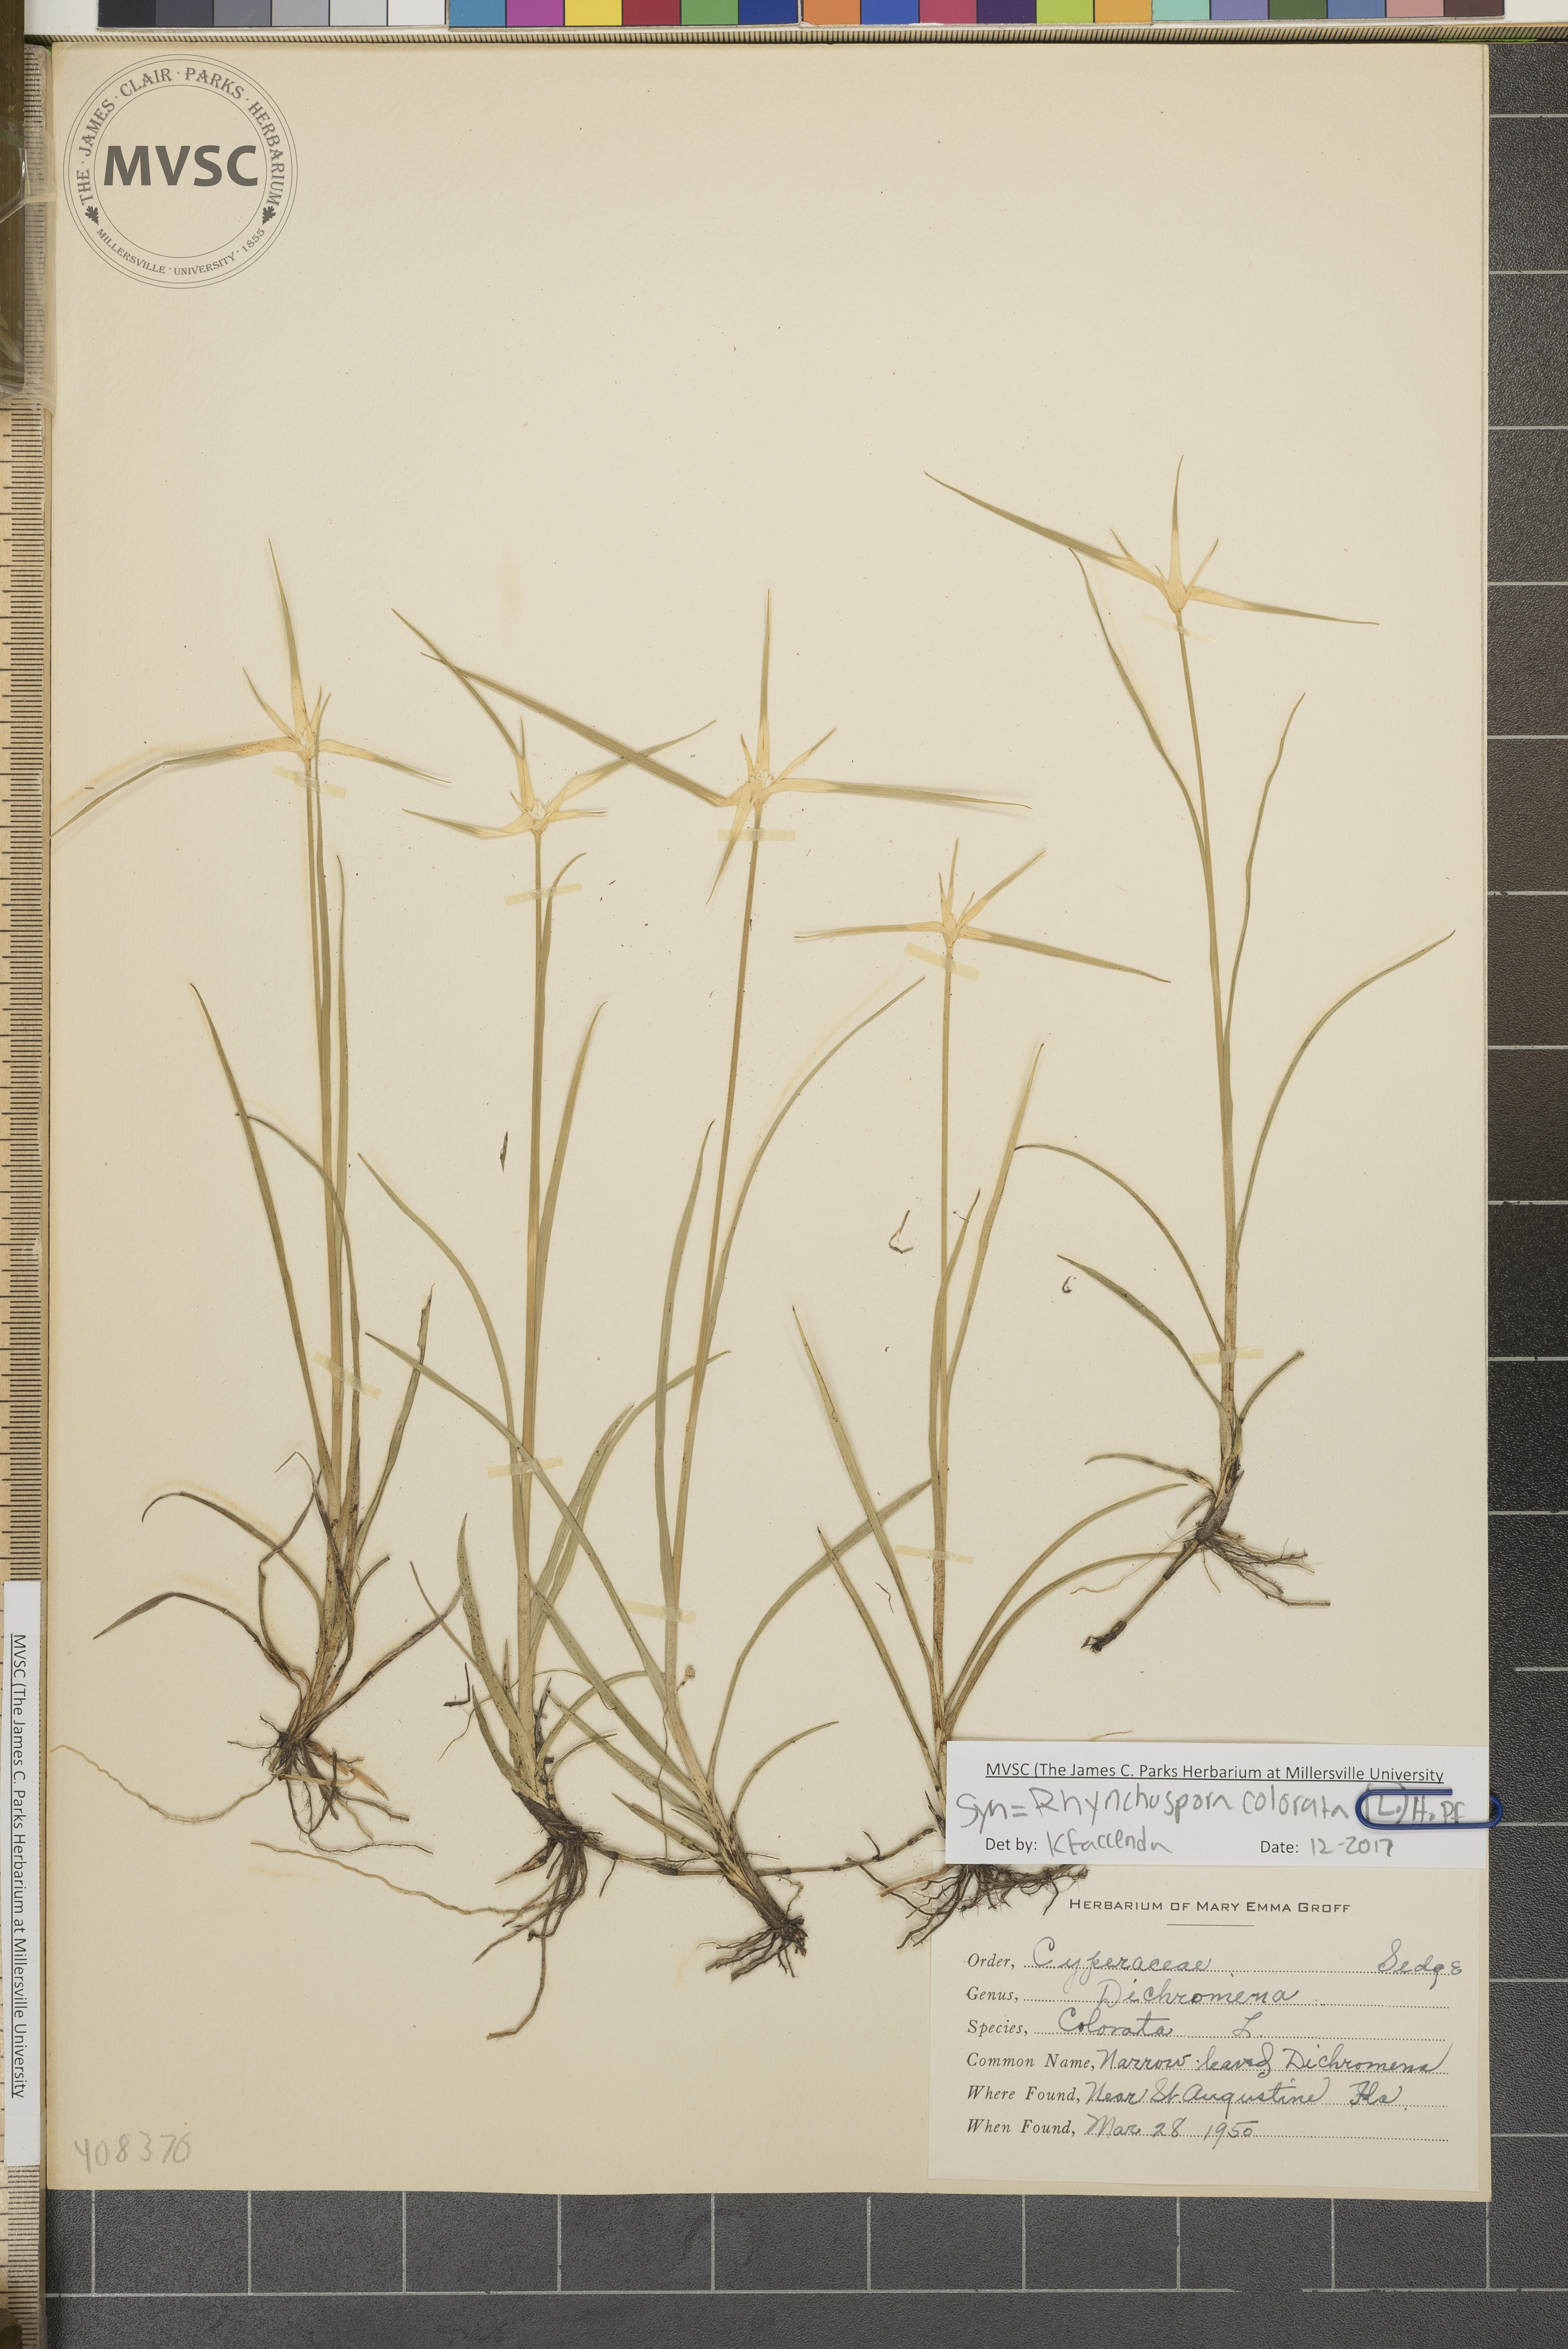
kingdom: Plantae
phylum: Tracheophyta
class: Liliopsida
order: Poales
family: Cyperaceae
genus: Rhynchospora
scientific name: Rhynchospora colorata
